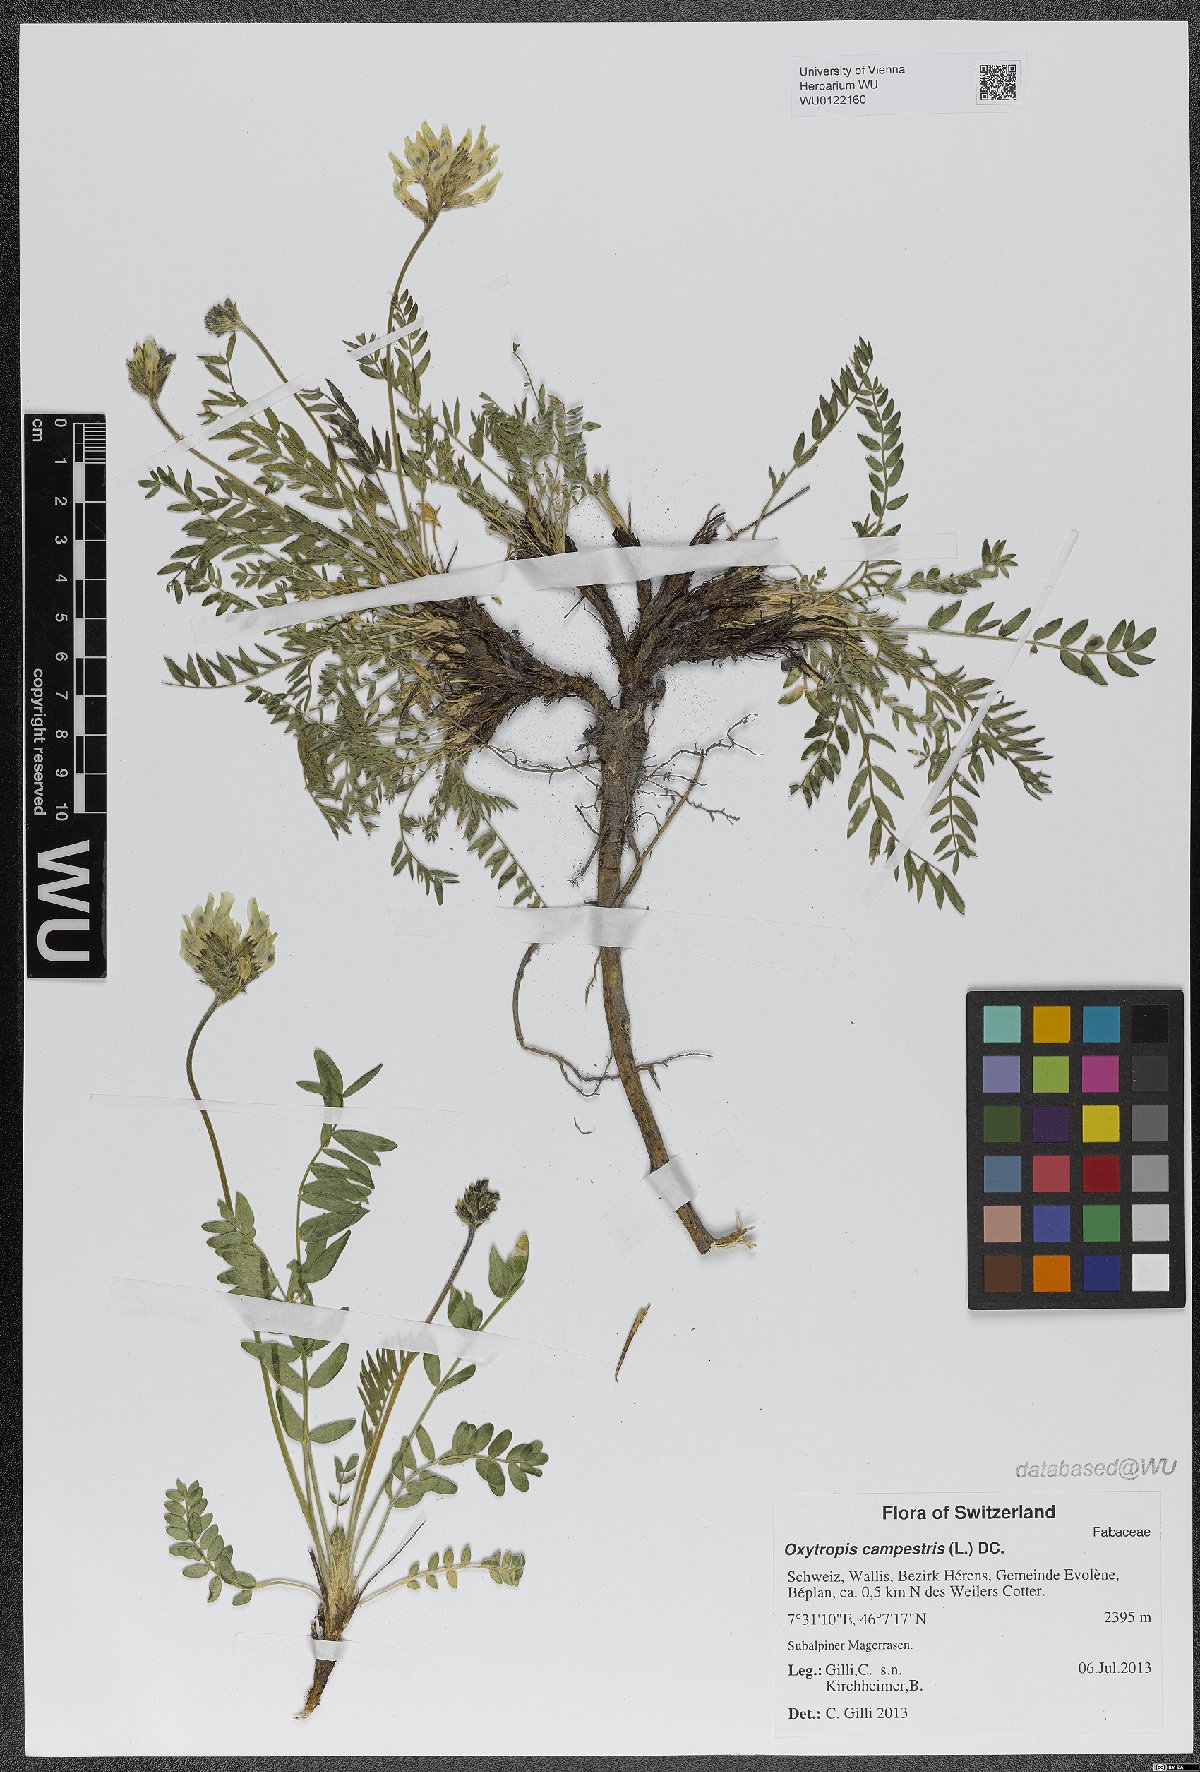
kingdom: Plantae
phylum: Tracheophyta
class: Magnoliopsida
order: Fabales
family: Fabaceae
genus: Oxytropis
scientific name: Oxytropis campestris
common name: Field locoweed
